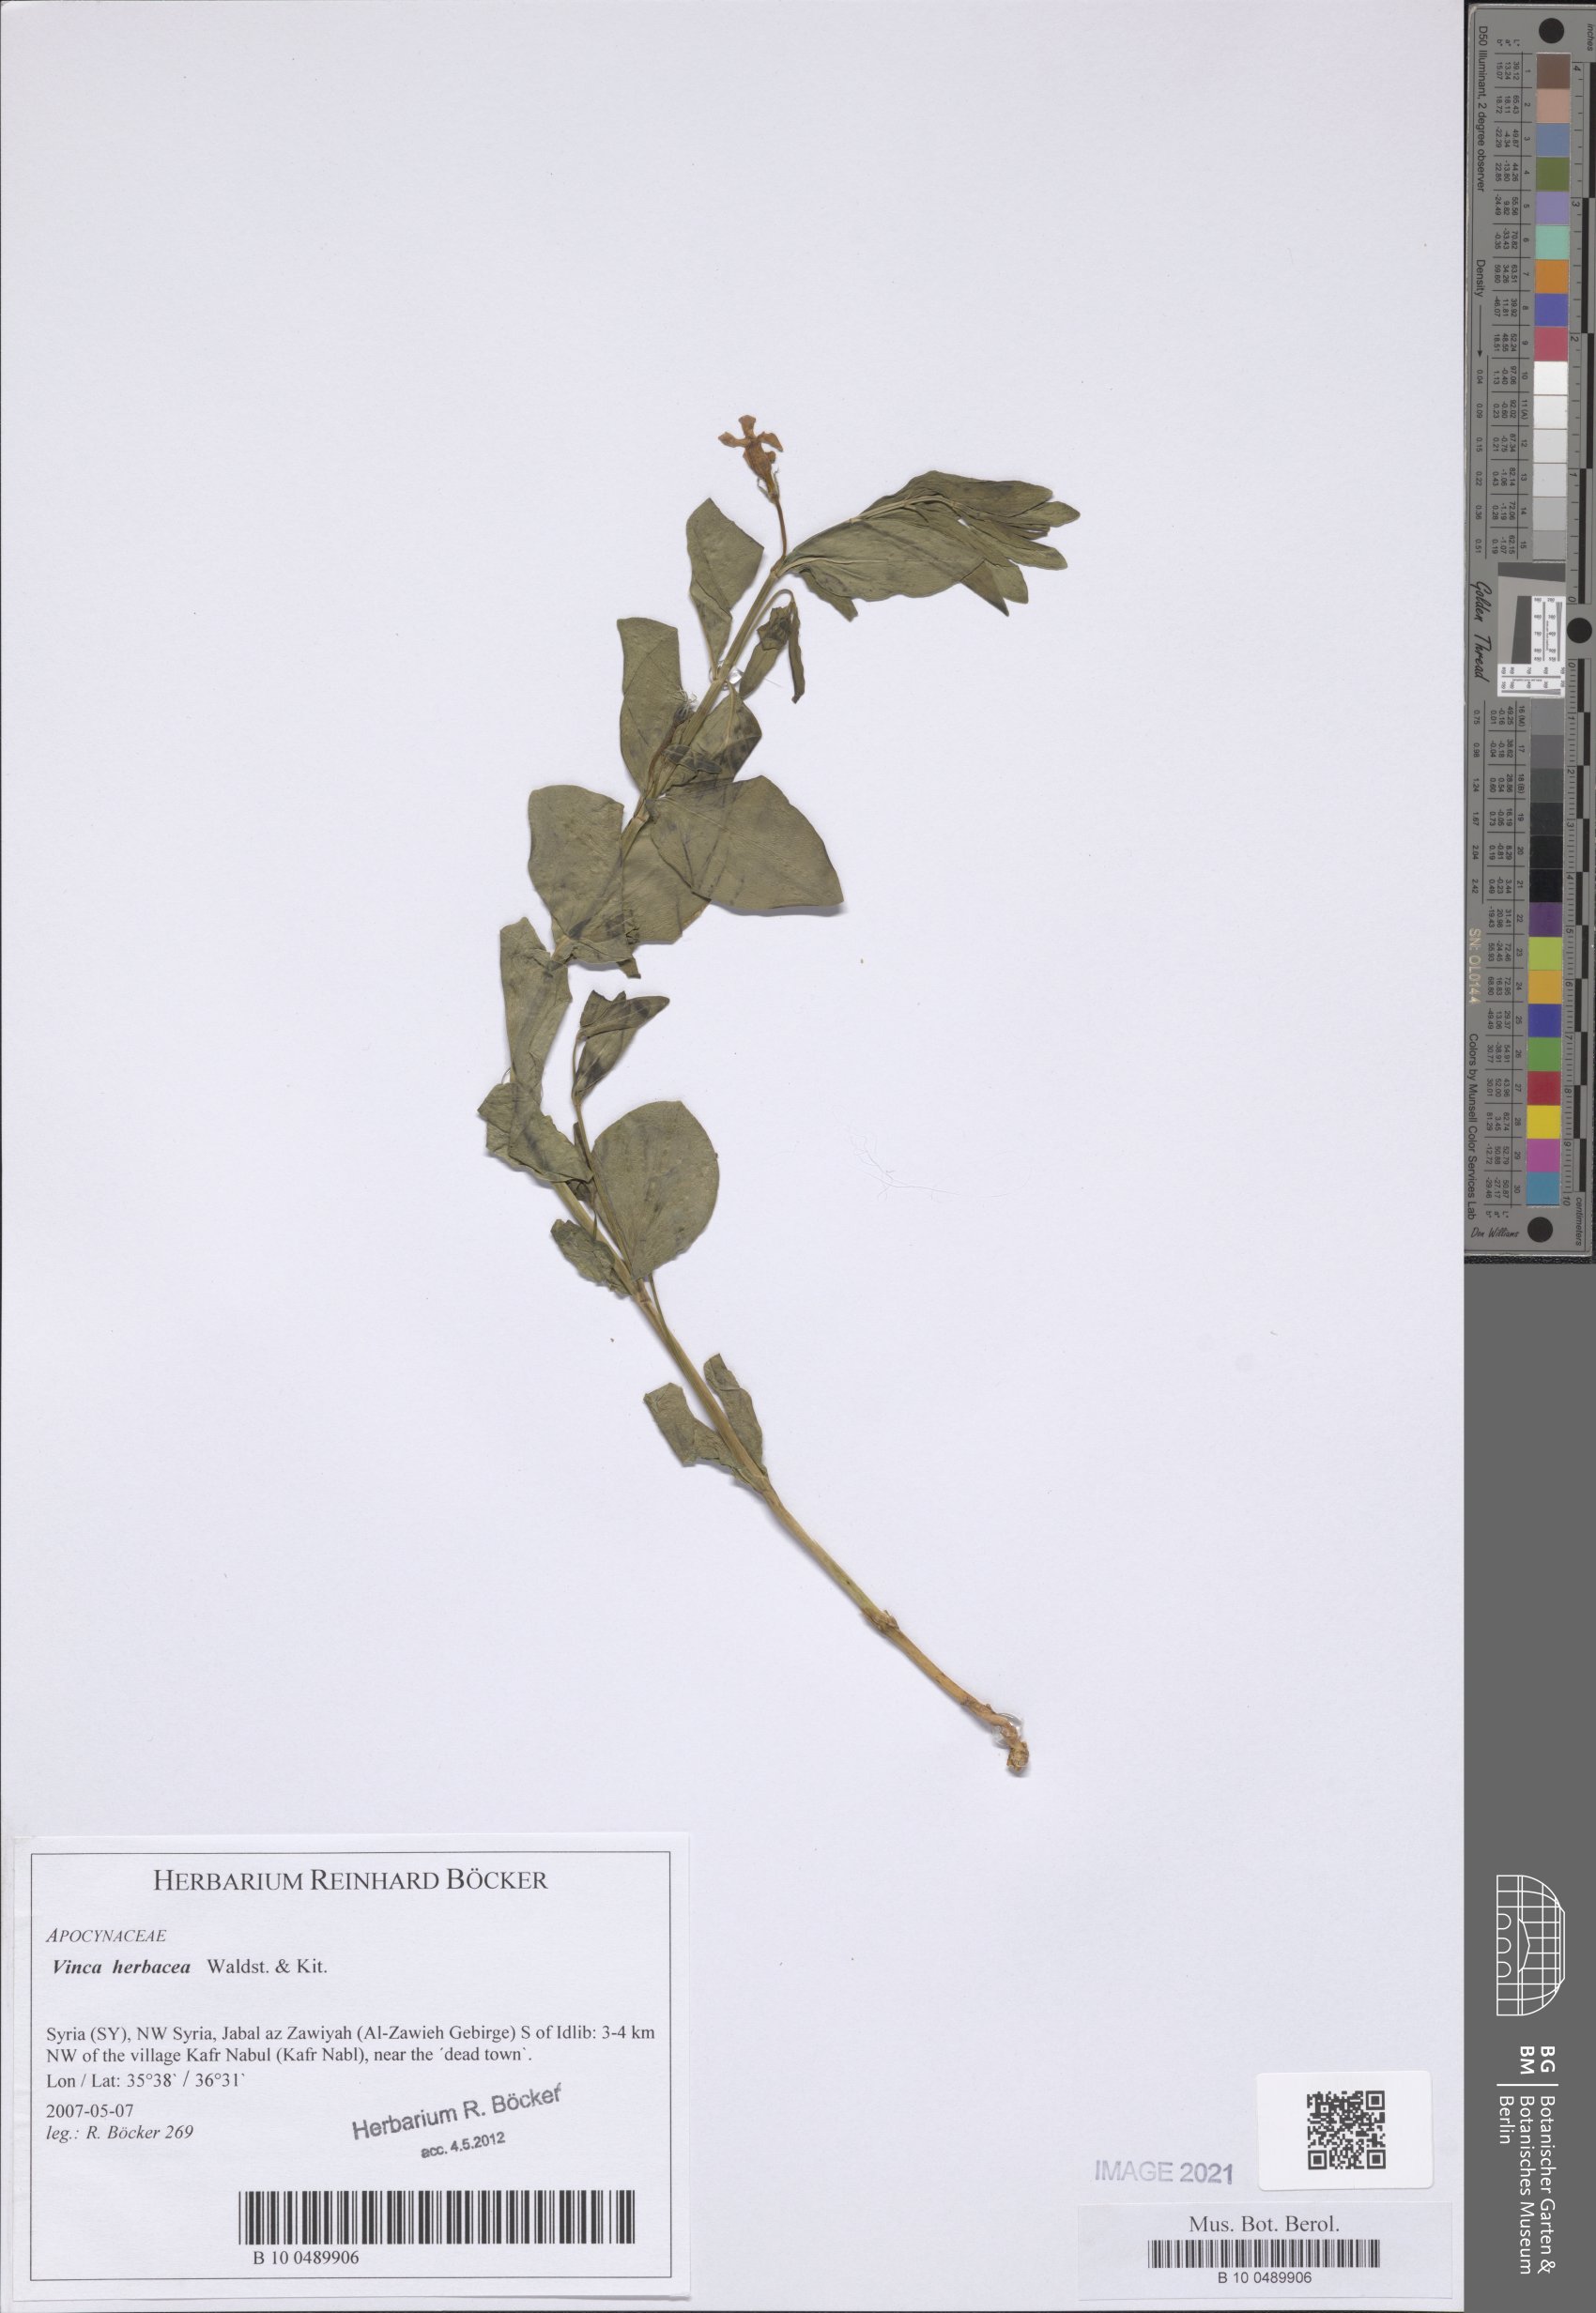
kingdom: Plantae
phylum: Tracheophyta
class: Magnoliopsida
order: Gentianales
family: Apocynaceae
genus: Vinca
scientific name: Vinca herbacea
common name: Herbaceous periwinkle
